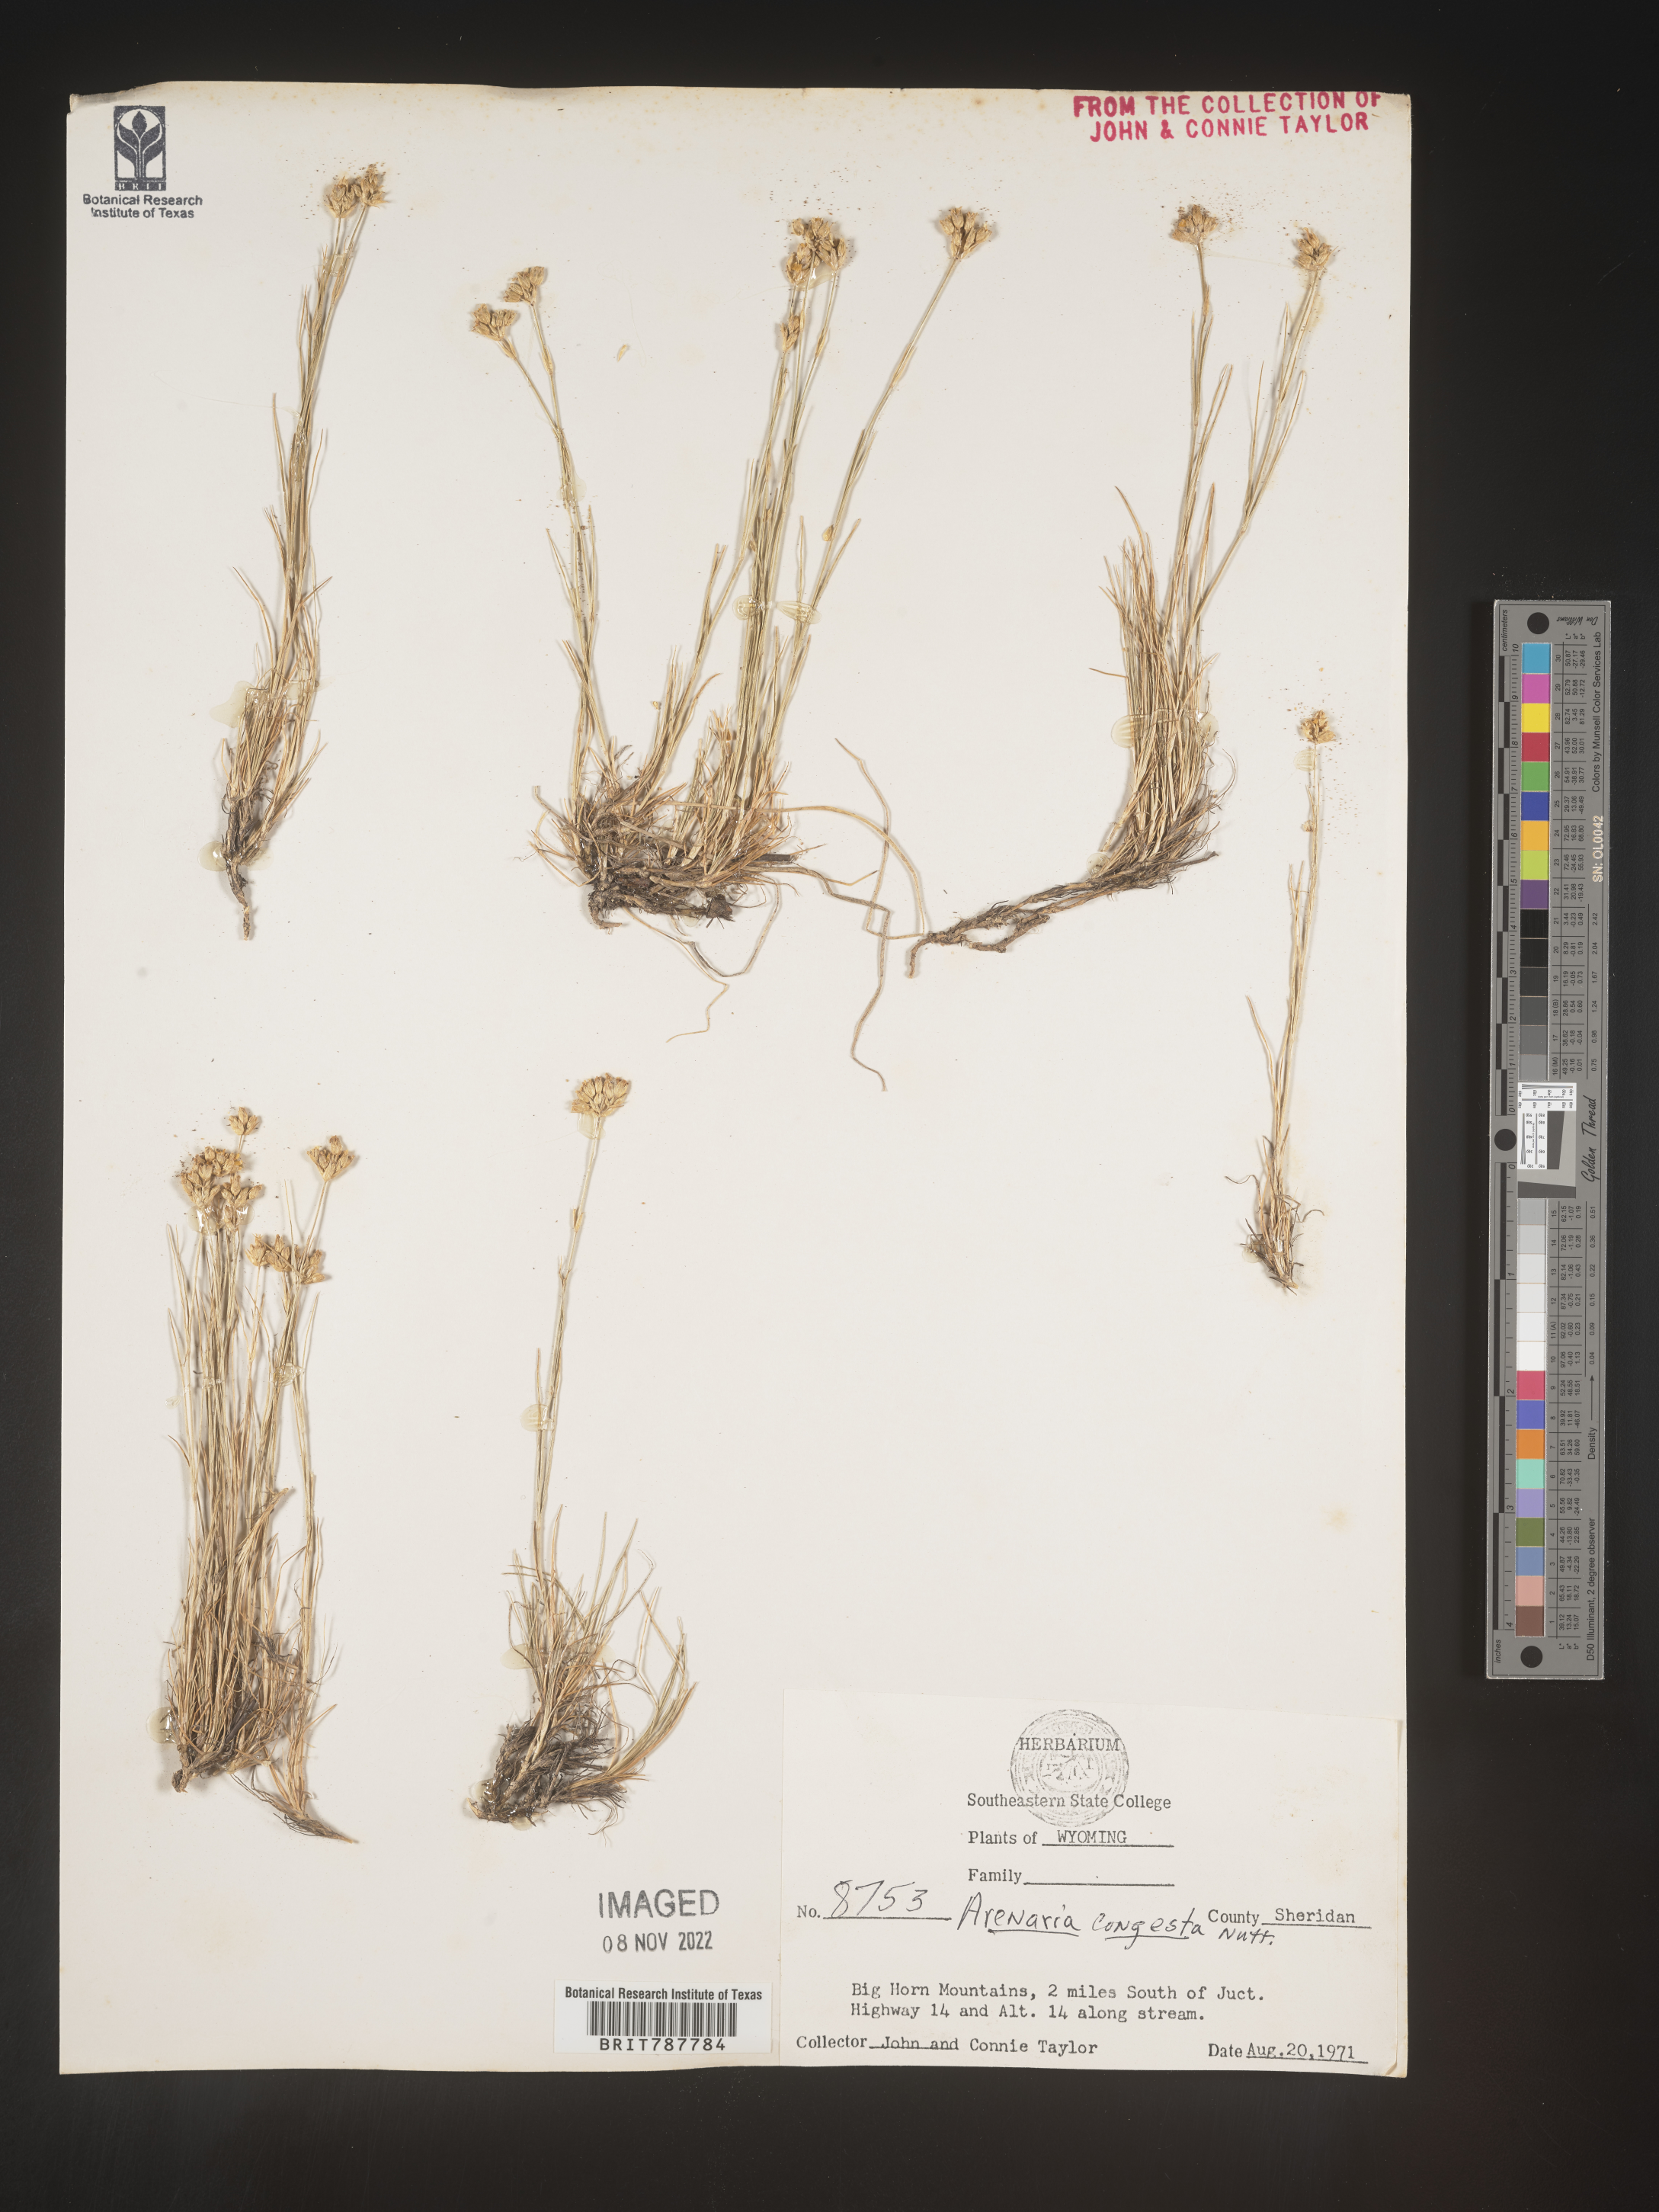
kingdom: Plantae
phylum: Tracheophyta
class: Magnoliopsida
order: Caryophyllales
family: Caryophyllaceae
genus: Eremogone
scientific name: Eremogone congesta
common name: Ballhead sandwort
